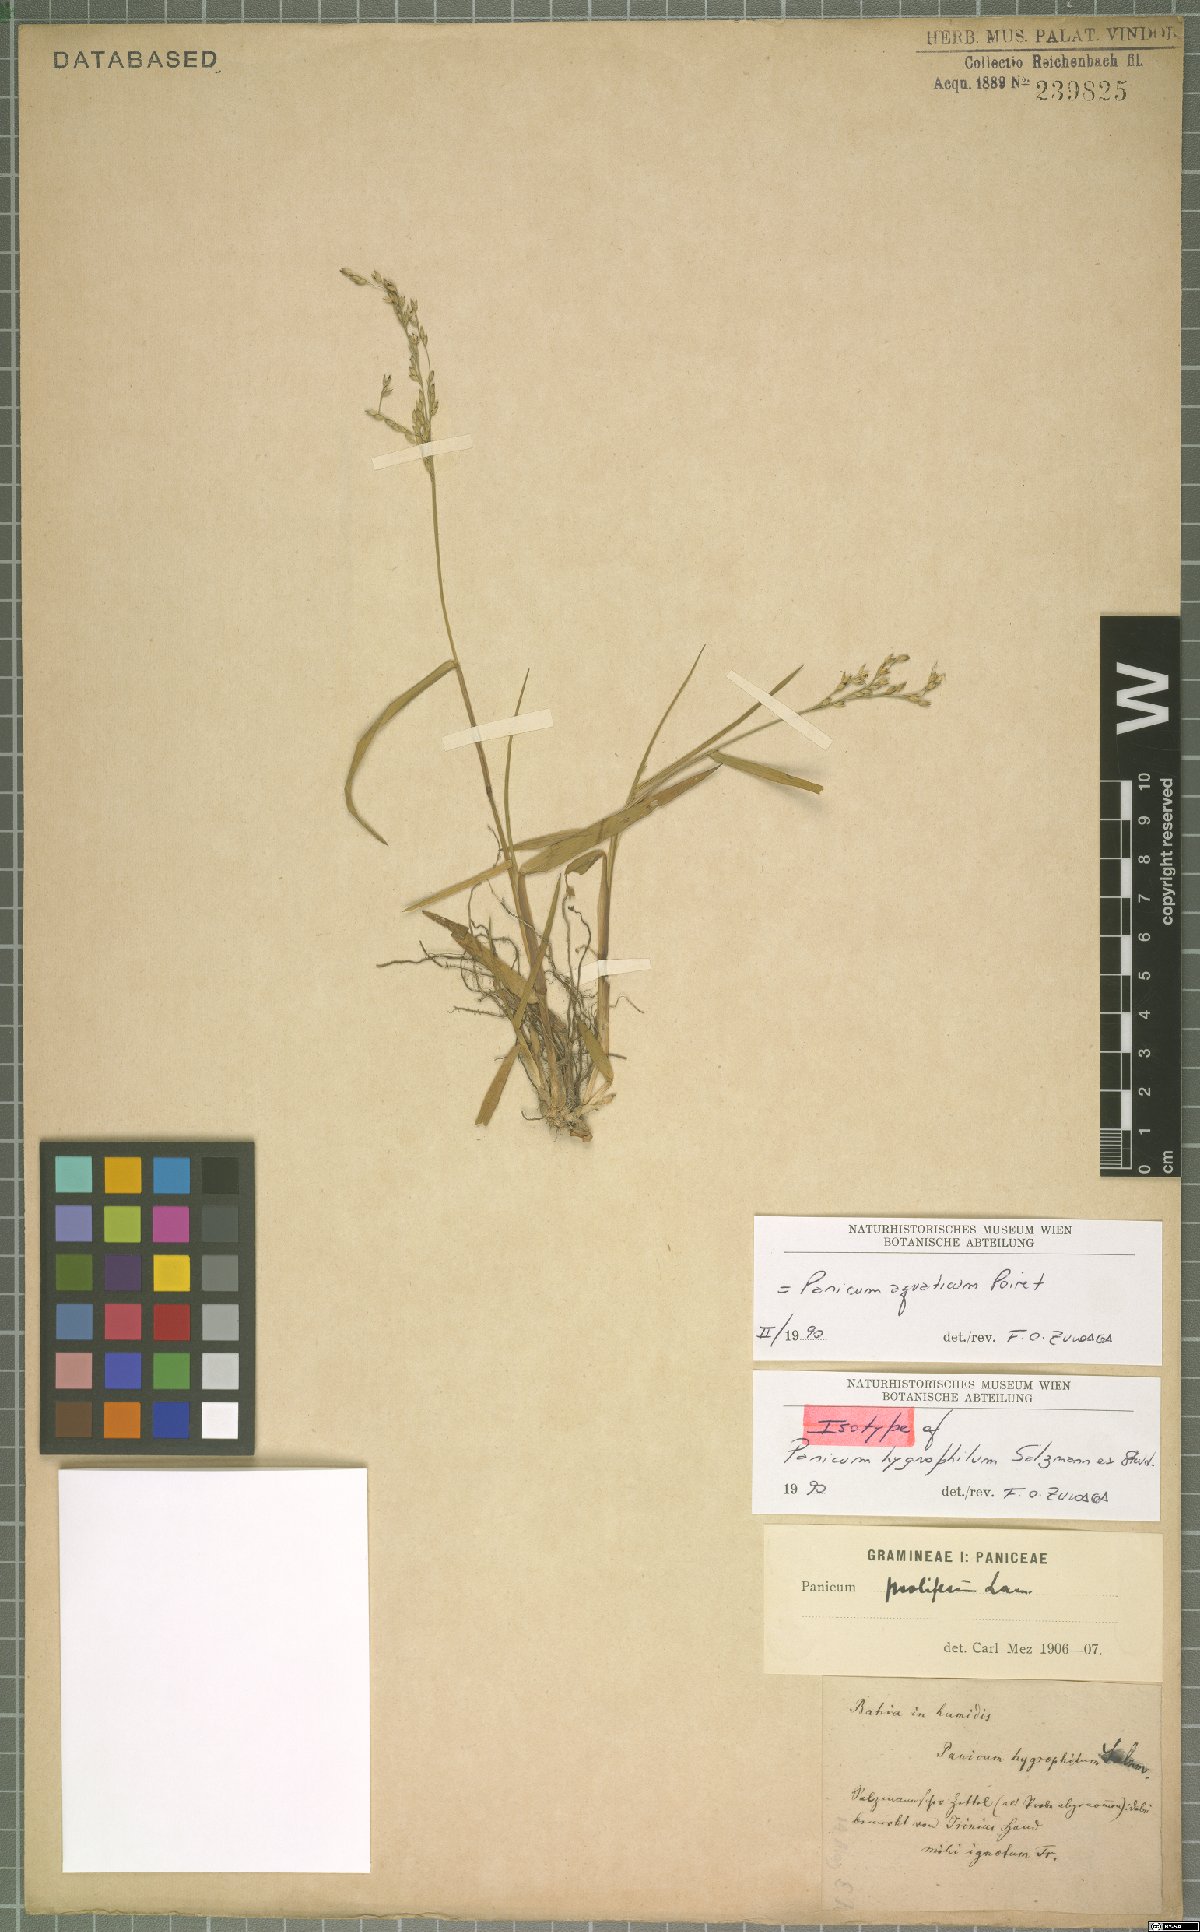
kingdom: Plantae
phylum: Tracheophyta
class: Liliopsida
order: Poales
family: Poaceae
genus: Panicum
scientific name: Panicum aquaticum
